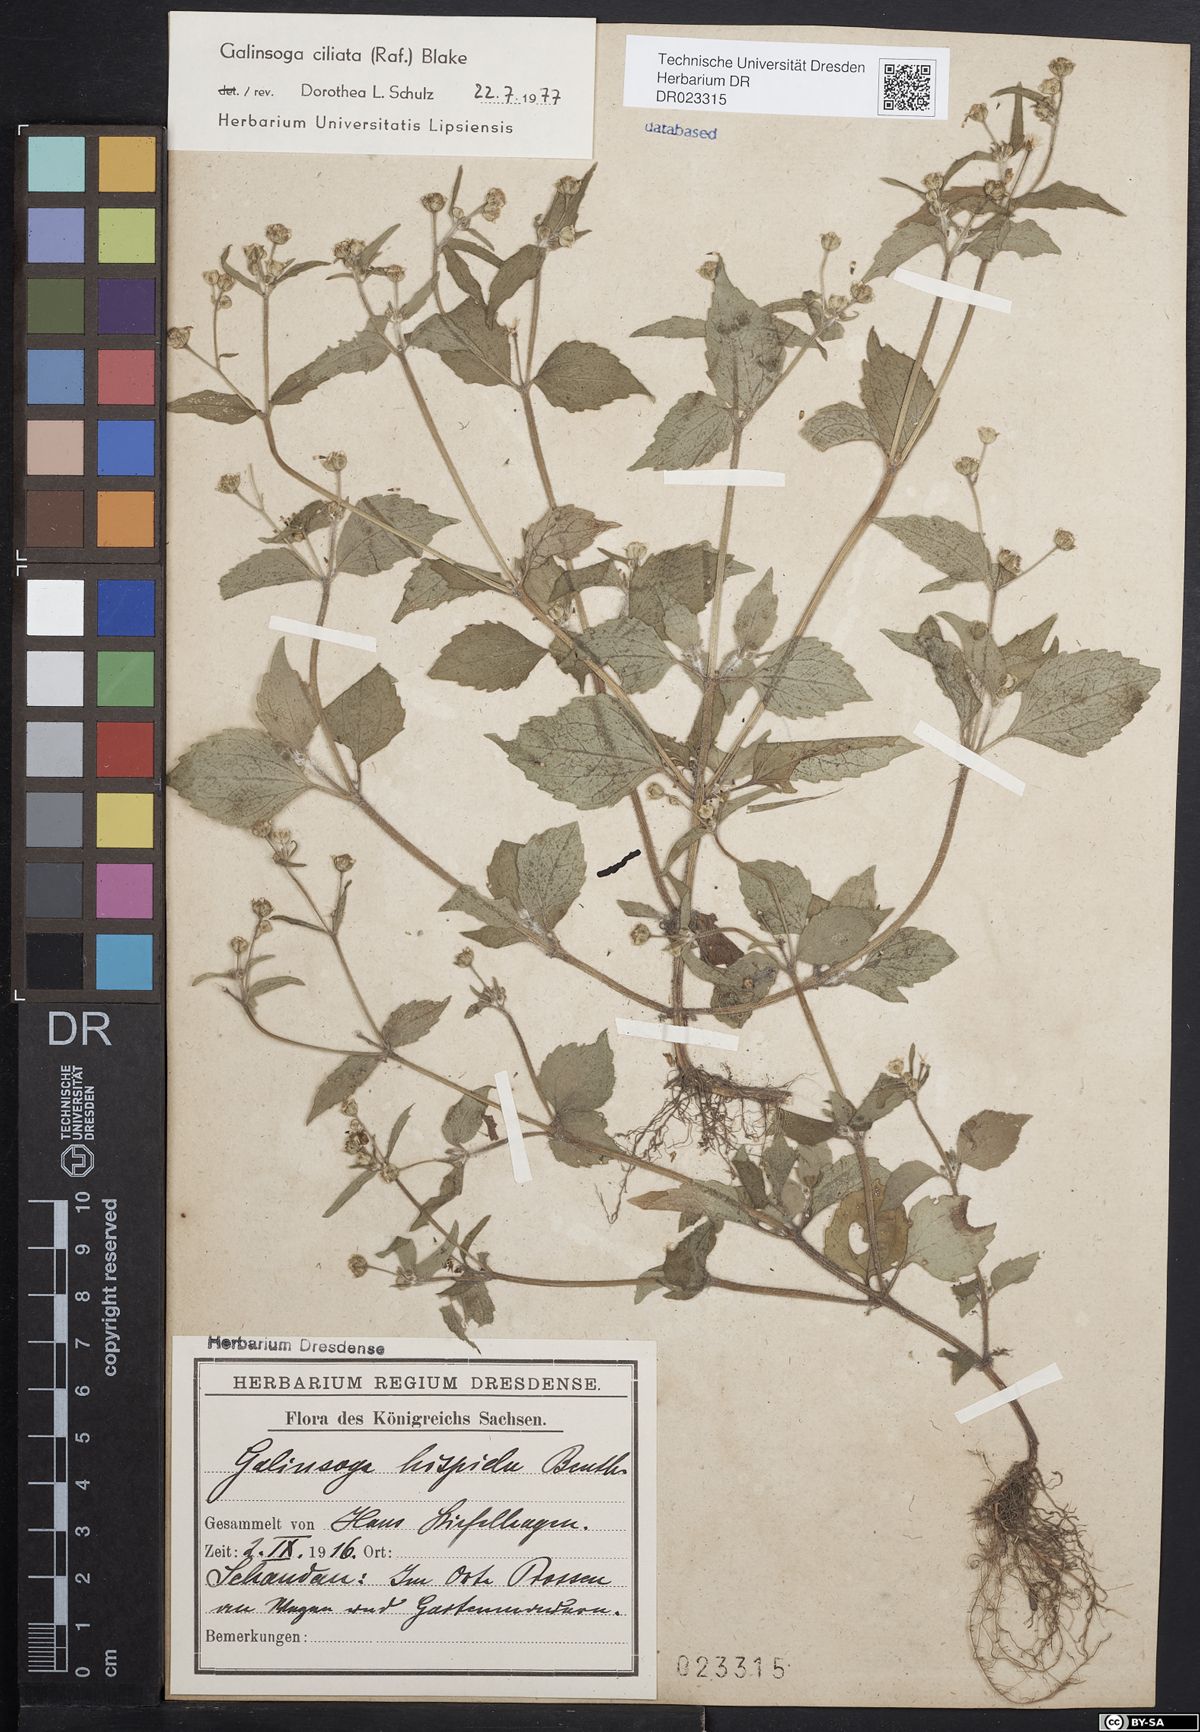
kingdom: Plantae
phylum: Tracheophyta
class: Magnoliopsida
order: Asterales
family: Asteraceae
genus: Galinsoga
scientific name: Galinsoga quadriradiata
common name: Shaggy soldier
